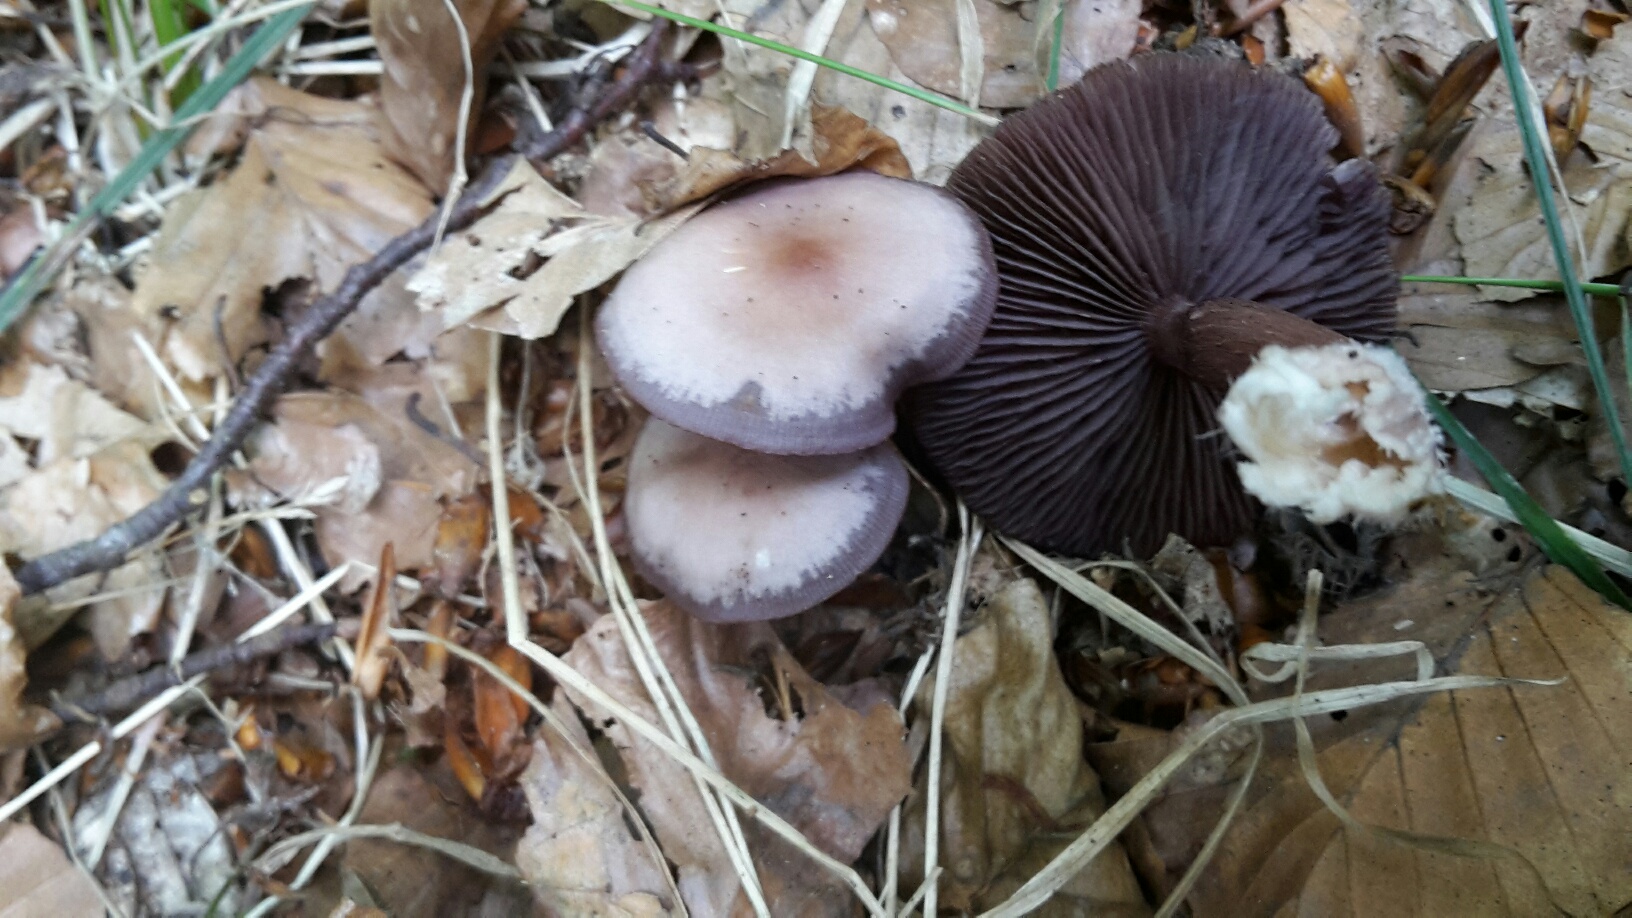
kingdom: Fungi
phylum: Basidiomycota
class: Agaricomycetes
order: Agaricales
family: Mycenaceae
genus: Mycena
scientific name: Mycena pelianthina
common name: mørkbladet huesvamp
